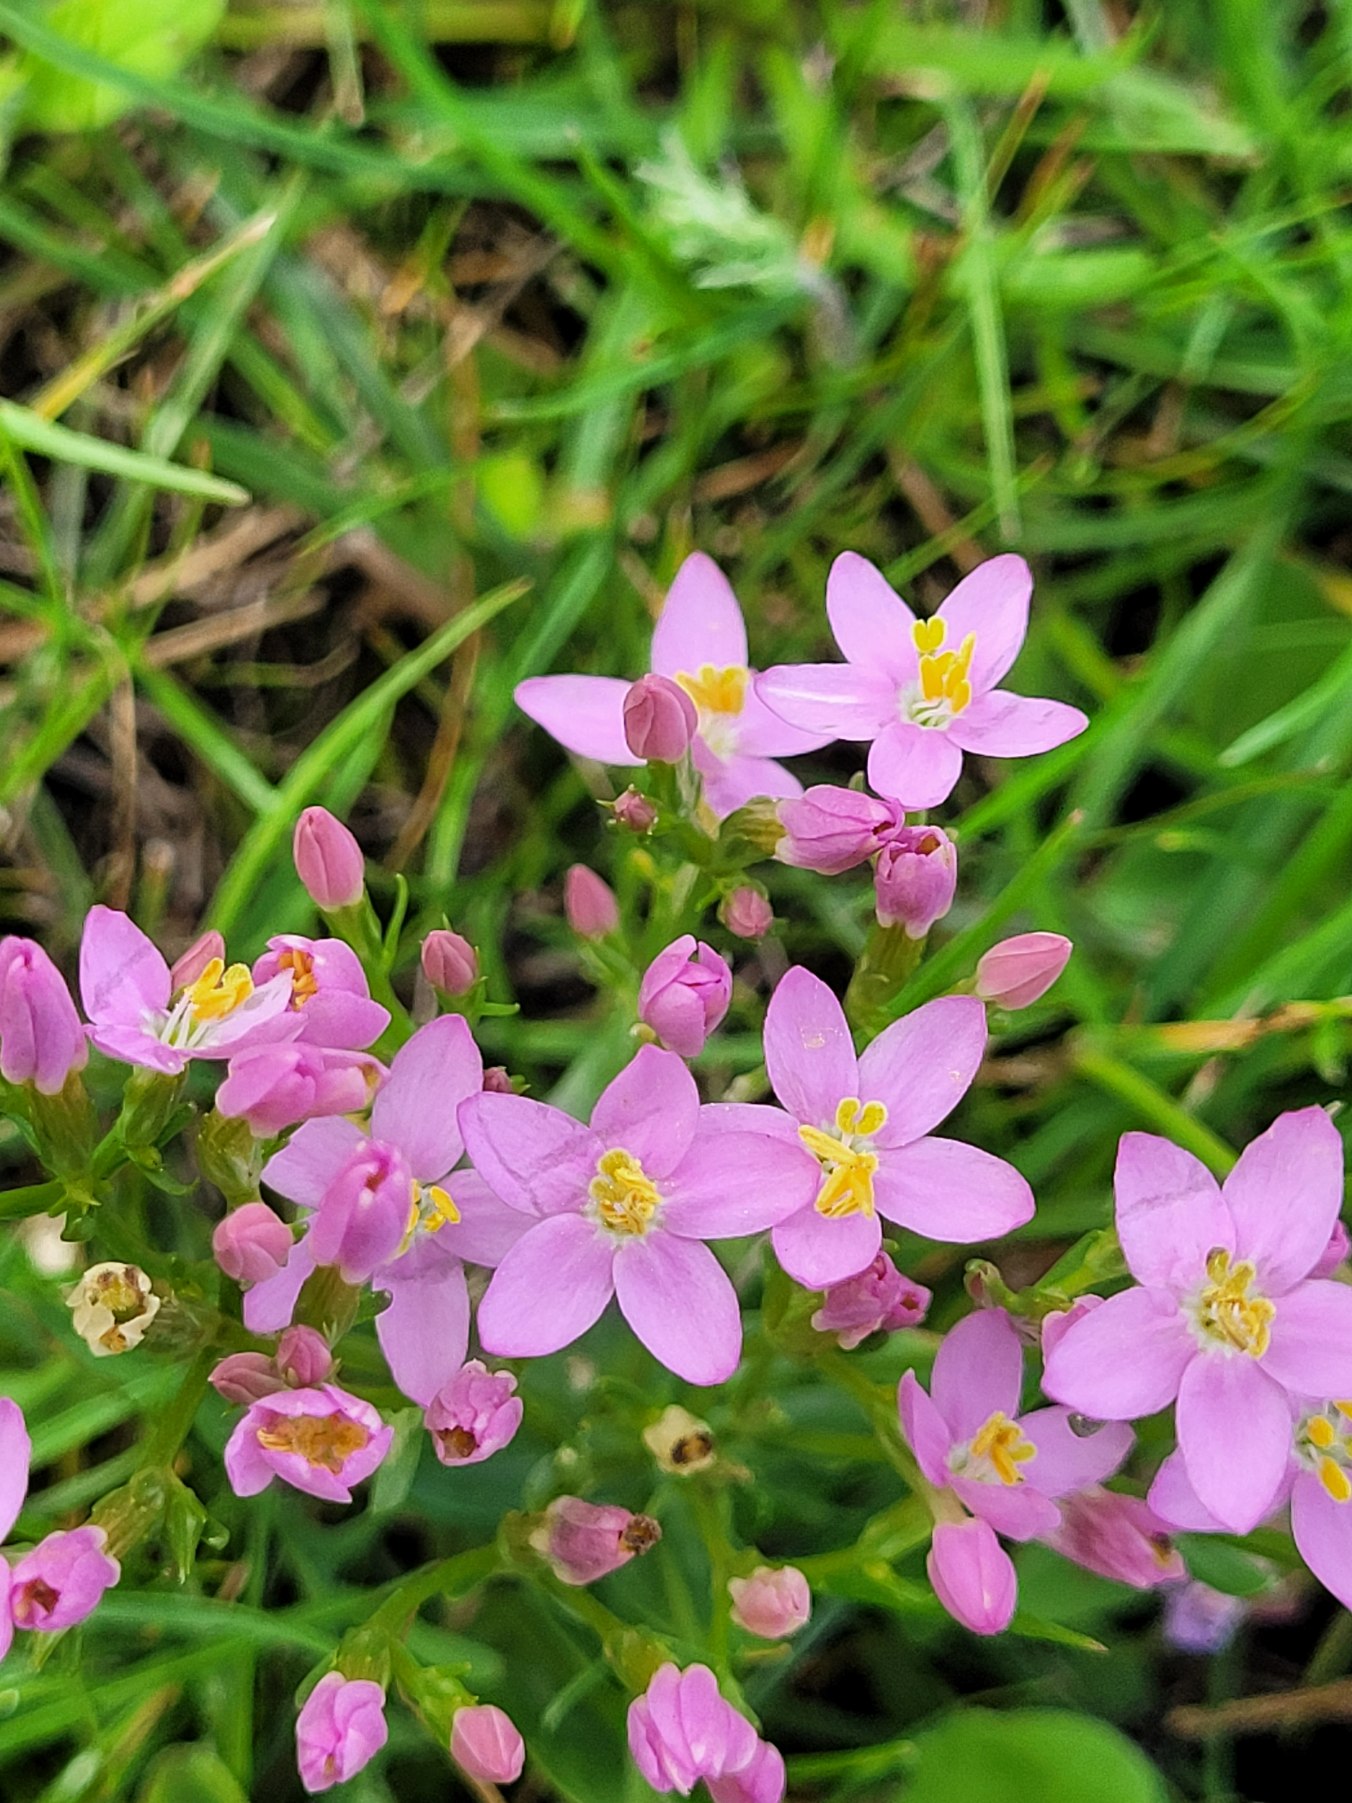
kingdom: Plantae
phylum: Tracheophyta
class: Magnoliopsida
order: Gentianales
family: Gentianaceae
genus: Centaurium
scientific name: Centaurium erythraea
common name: Mark-tusindgylden
